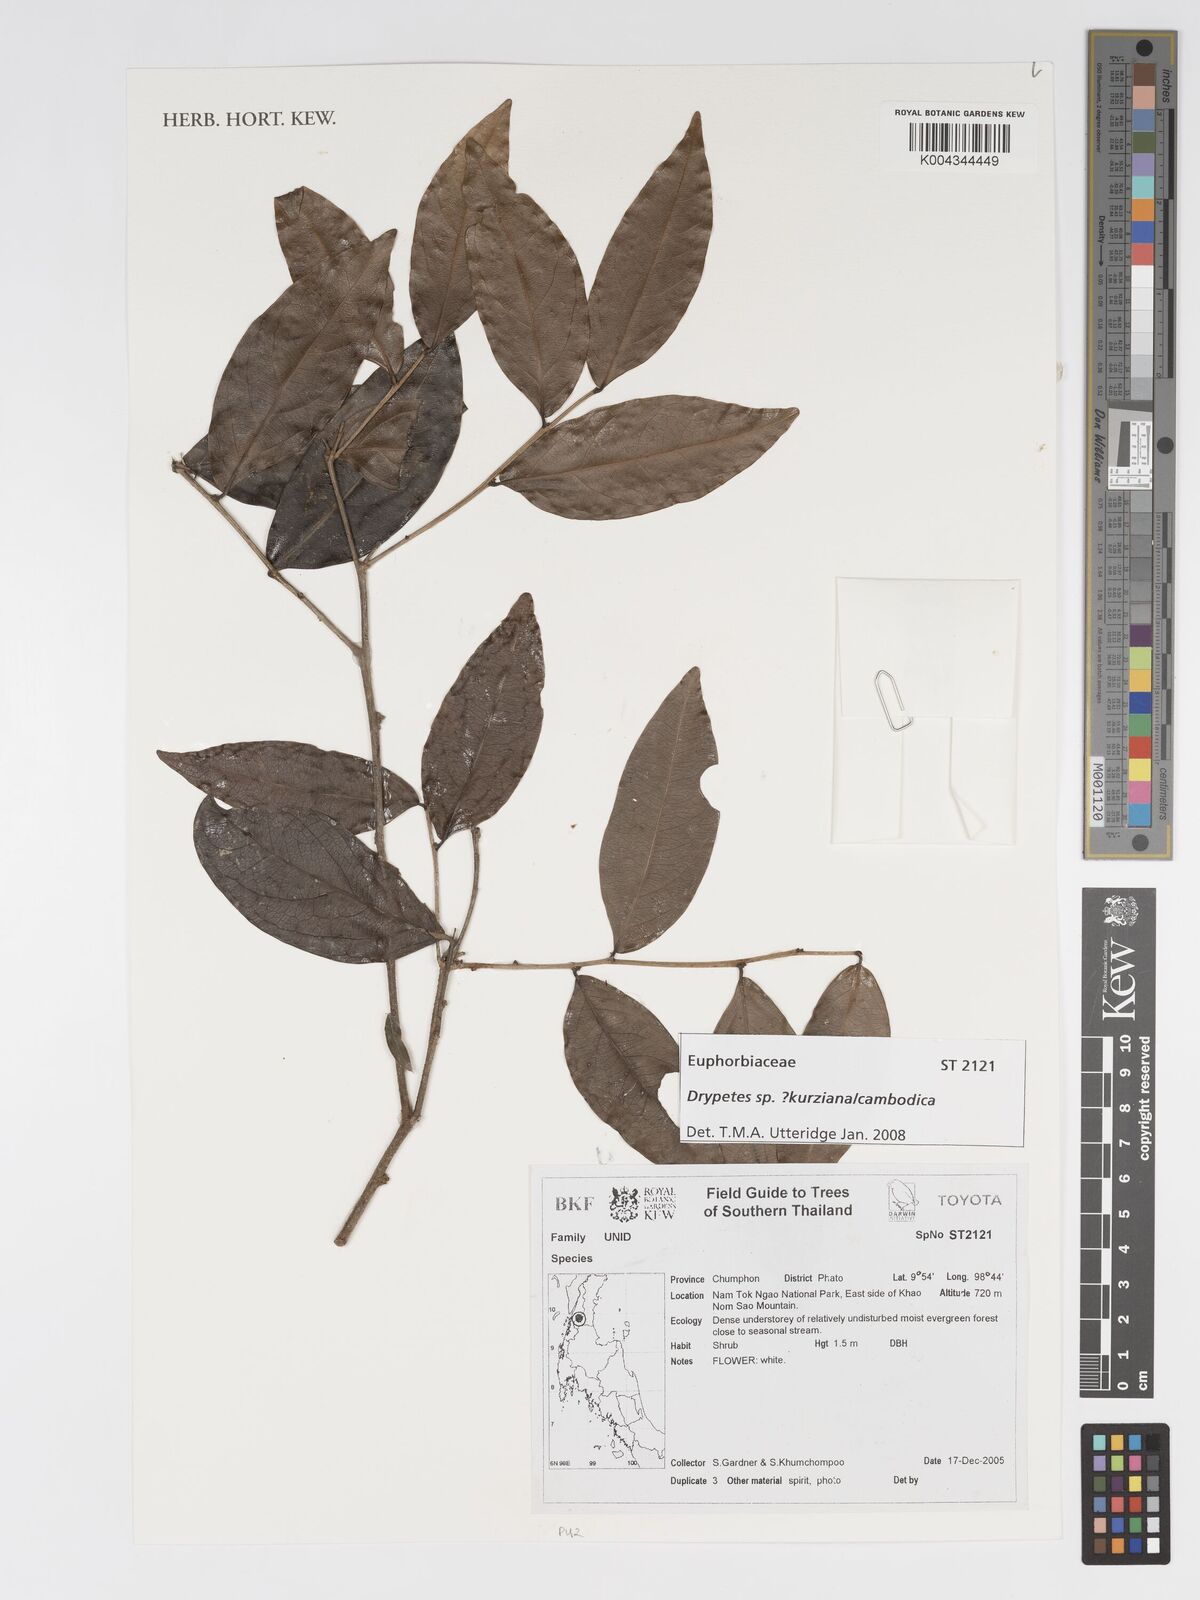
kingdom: Plantae
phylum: Tracheophyta
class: Magnoliopsida
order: Malpighiales
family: Putranjivaceae
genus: Drypetes
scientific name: Drypetes
